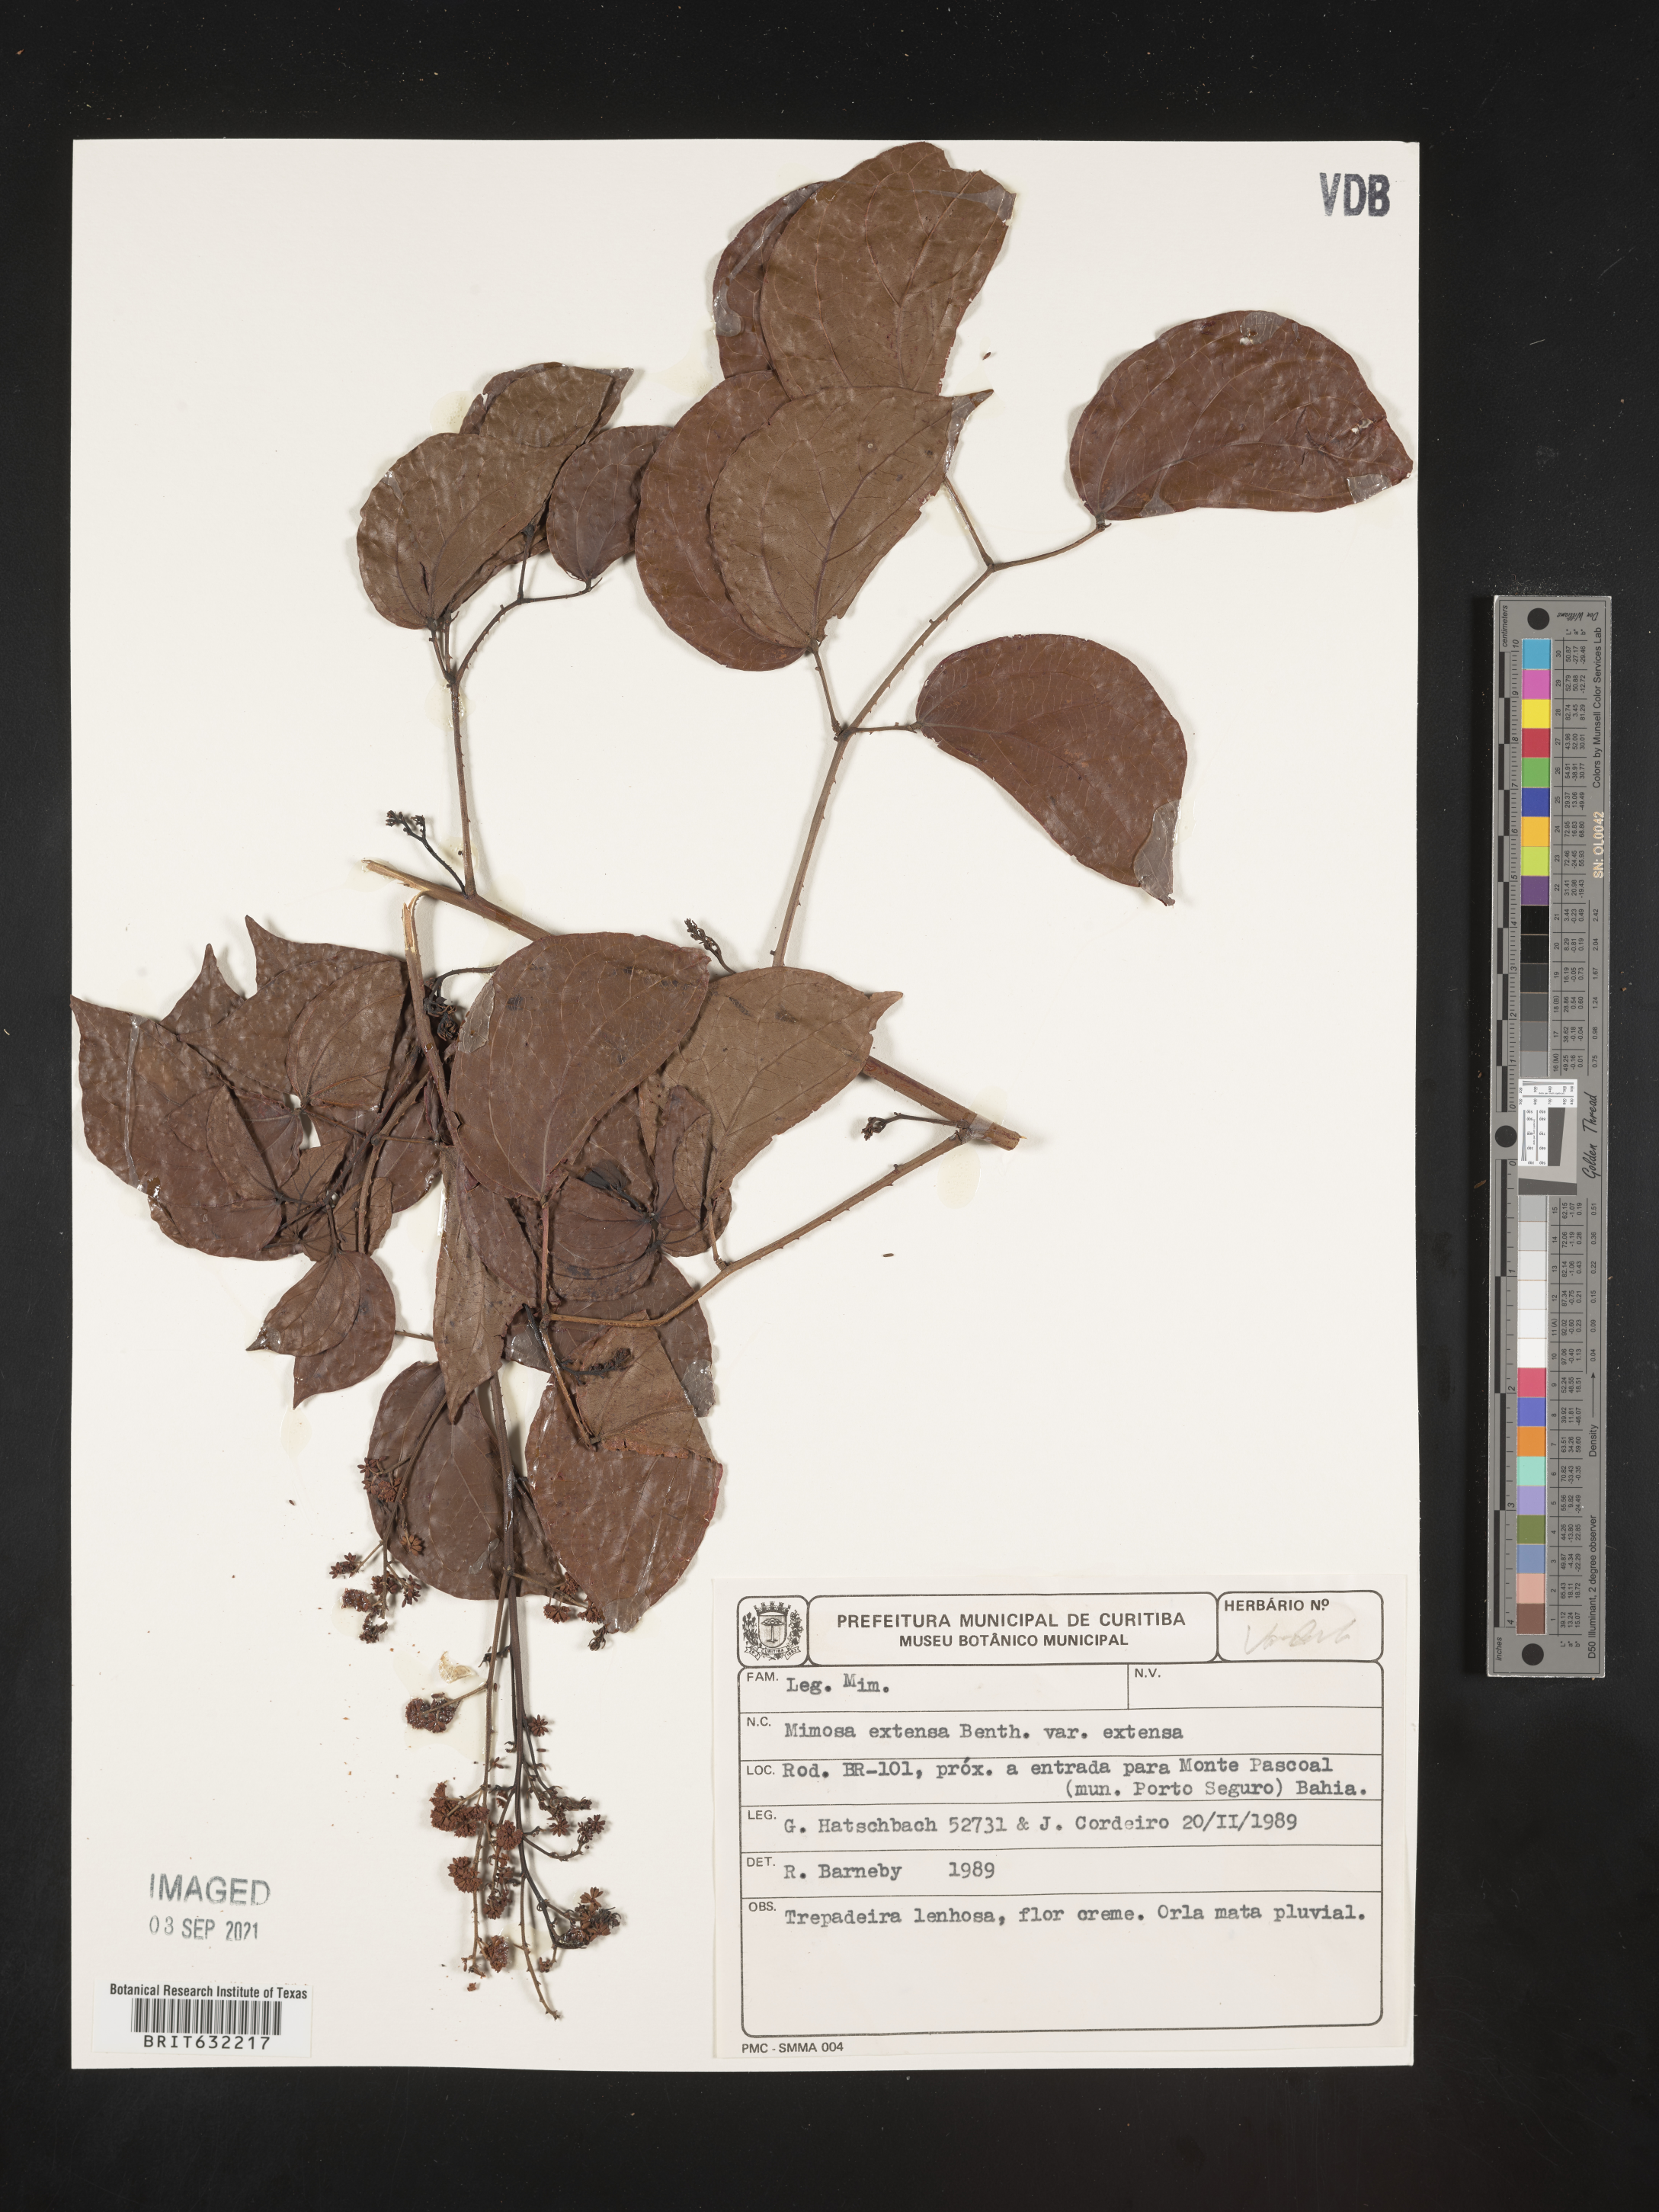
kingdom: Plantae
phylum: Tracheophyta
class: Magnoliopsida
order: Fabales
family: Fabaceae
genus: Mimosa
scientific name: Mimosa
